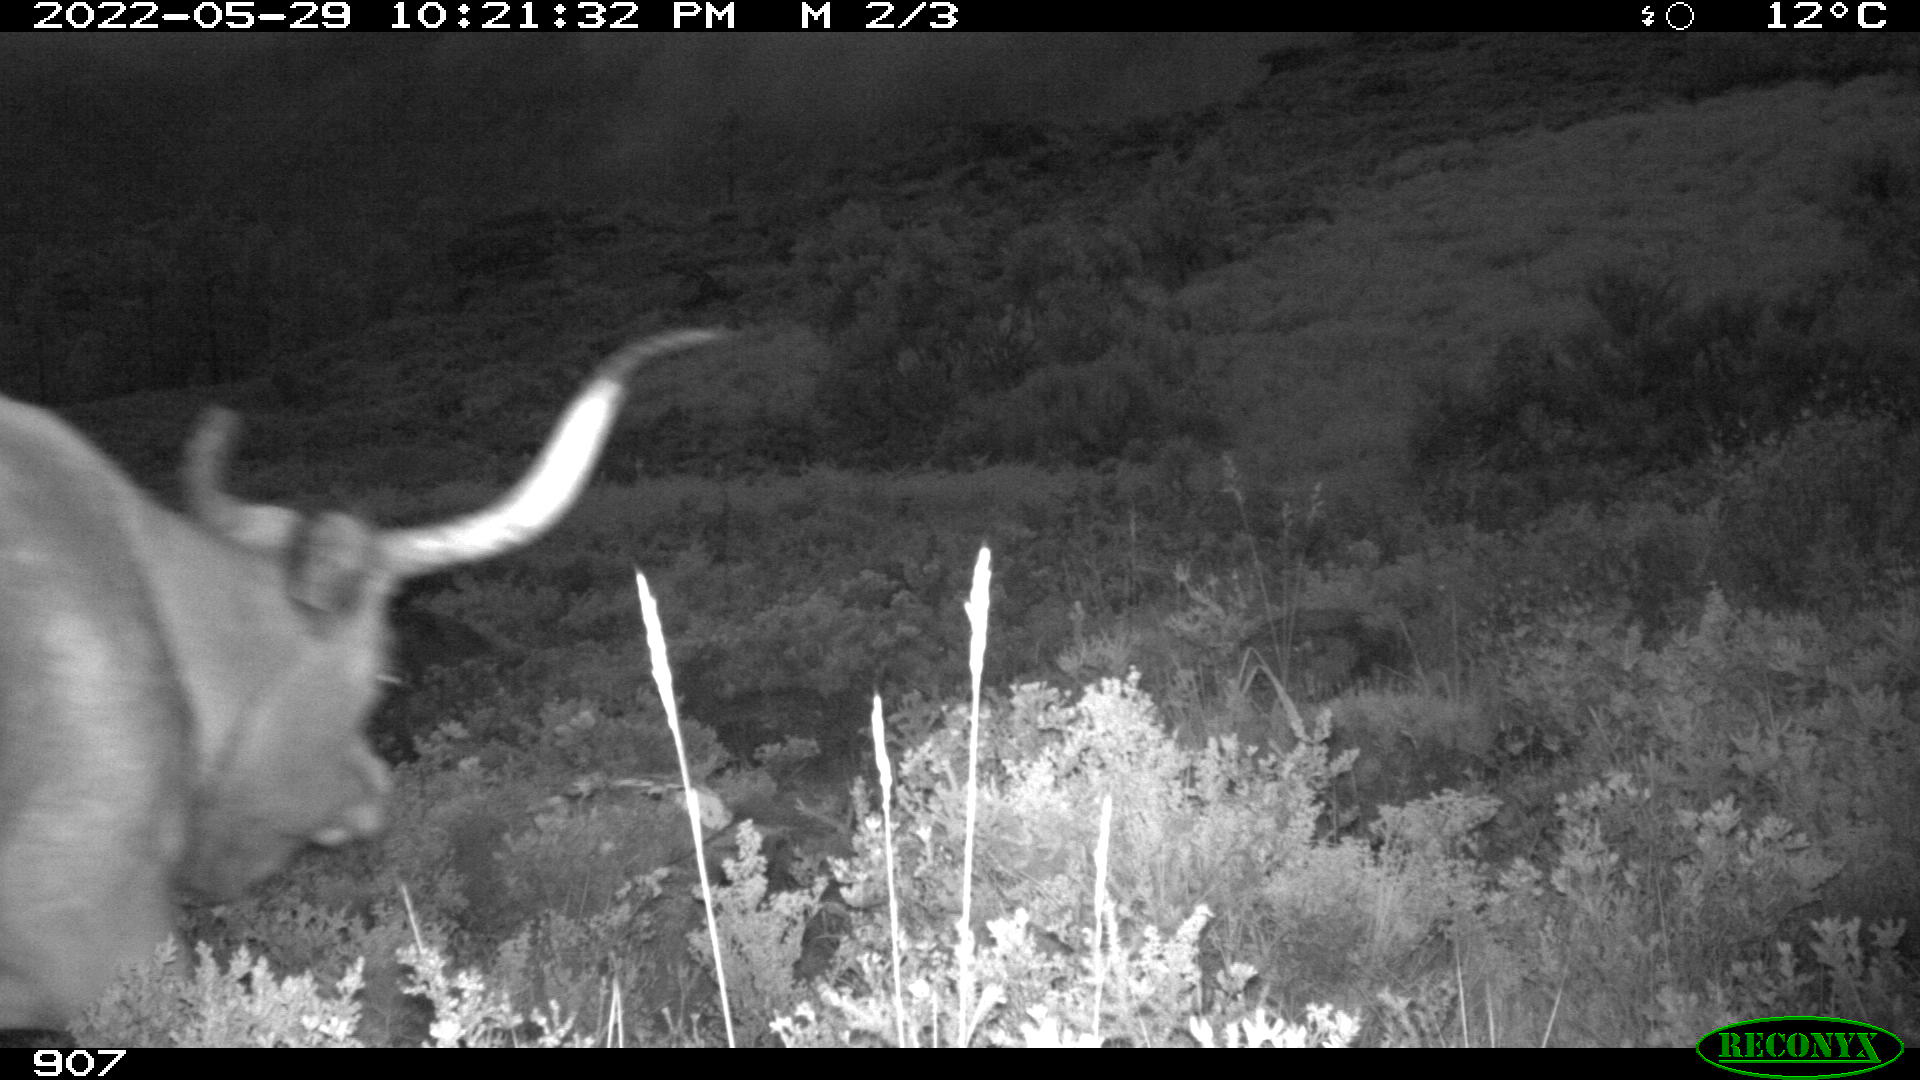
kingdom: Animalia
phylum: Chordata
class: Mammalia
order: Artiodactyla
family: Bovidae
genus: Bos
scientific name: Bos taurus
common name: Domesticated cattle
